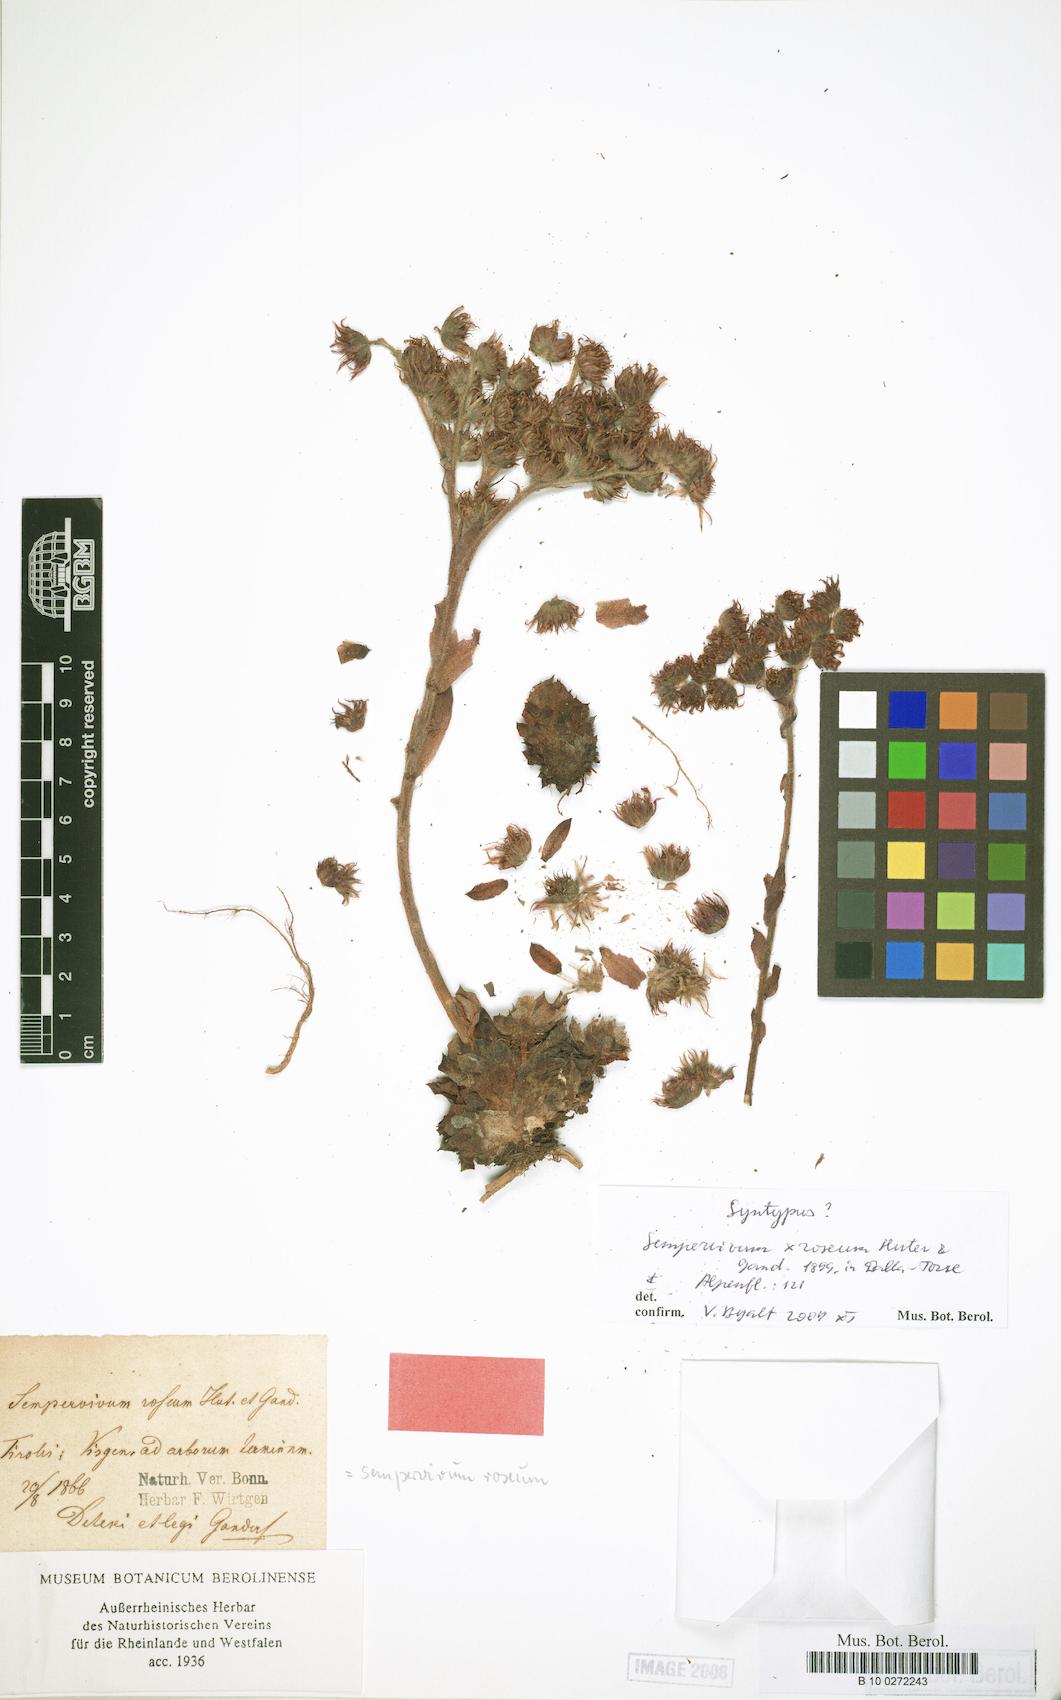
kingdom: Plantae
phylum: Tracheophyta
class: Magnoliopsida
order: Saxifragales
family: Crassulaceae
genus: Sempervivum
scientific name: Sempervivum fimbriatum
